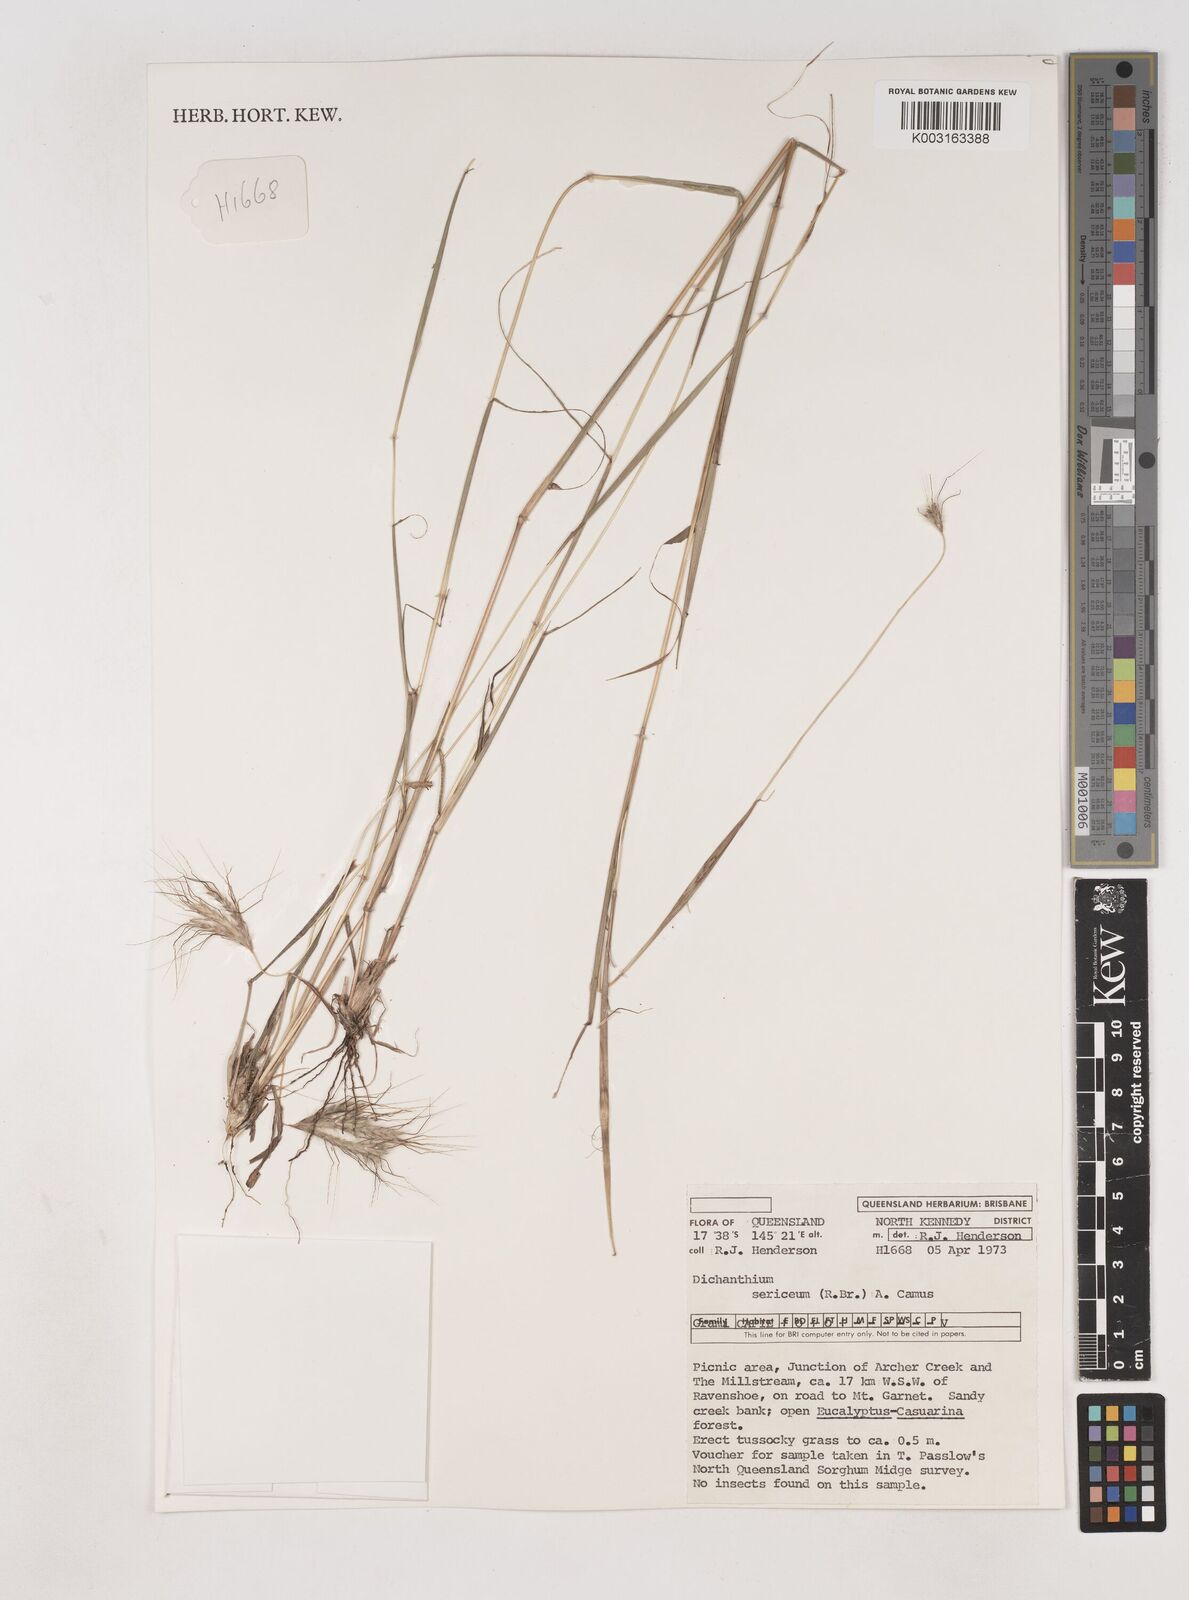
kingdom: Plantae
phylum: Tracheophyta
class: Liliopsida
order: Poales
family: Poaceae
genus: Dichanthium
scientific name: Dichanthium sericeum
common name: Silky bluestem
